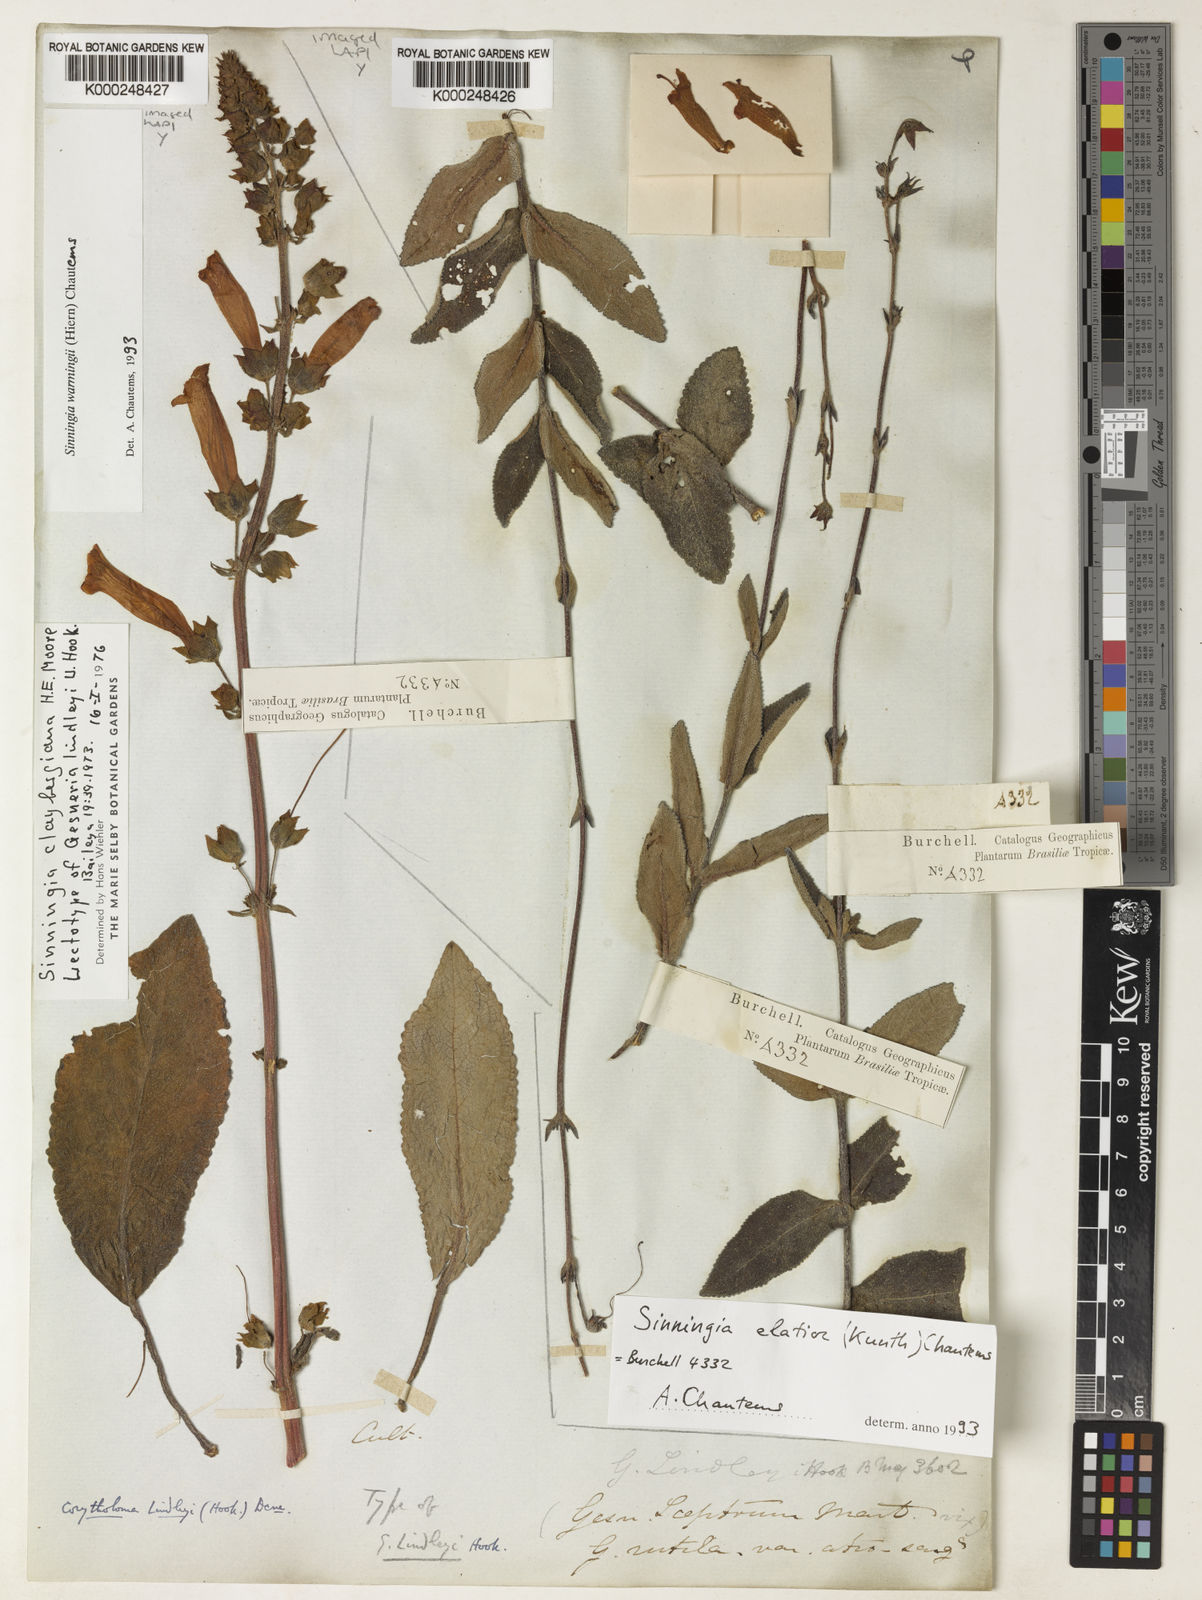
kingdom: Plantae
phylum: Tracheophyta
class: Magnoliopsida
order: Lamiales
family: Gesneriaceae
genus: Sinningia
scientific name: Sinningia elatior
